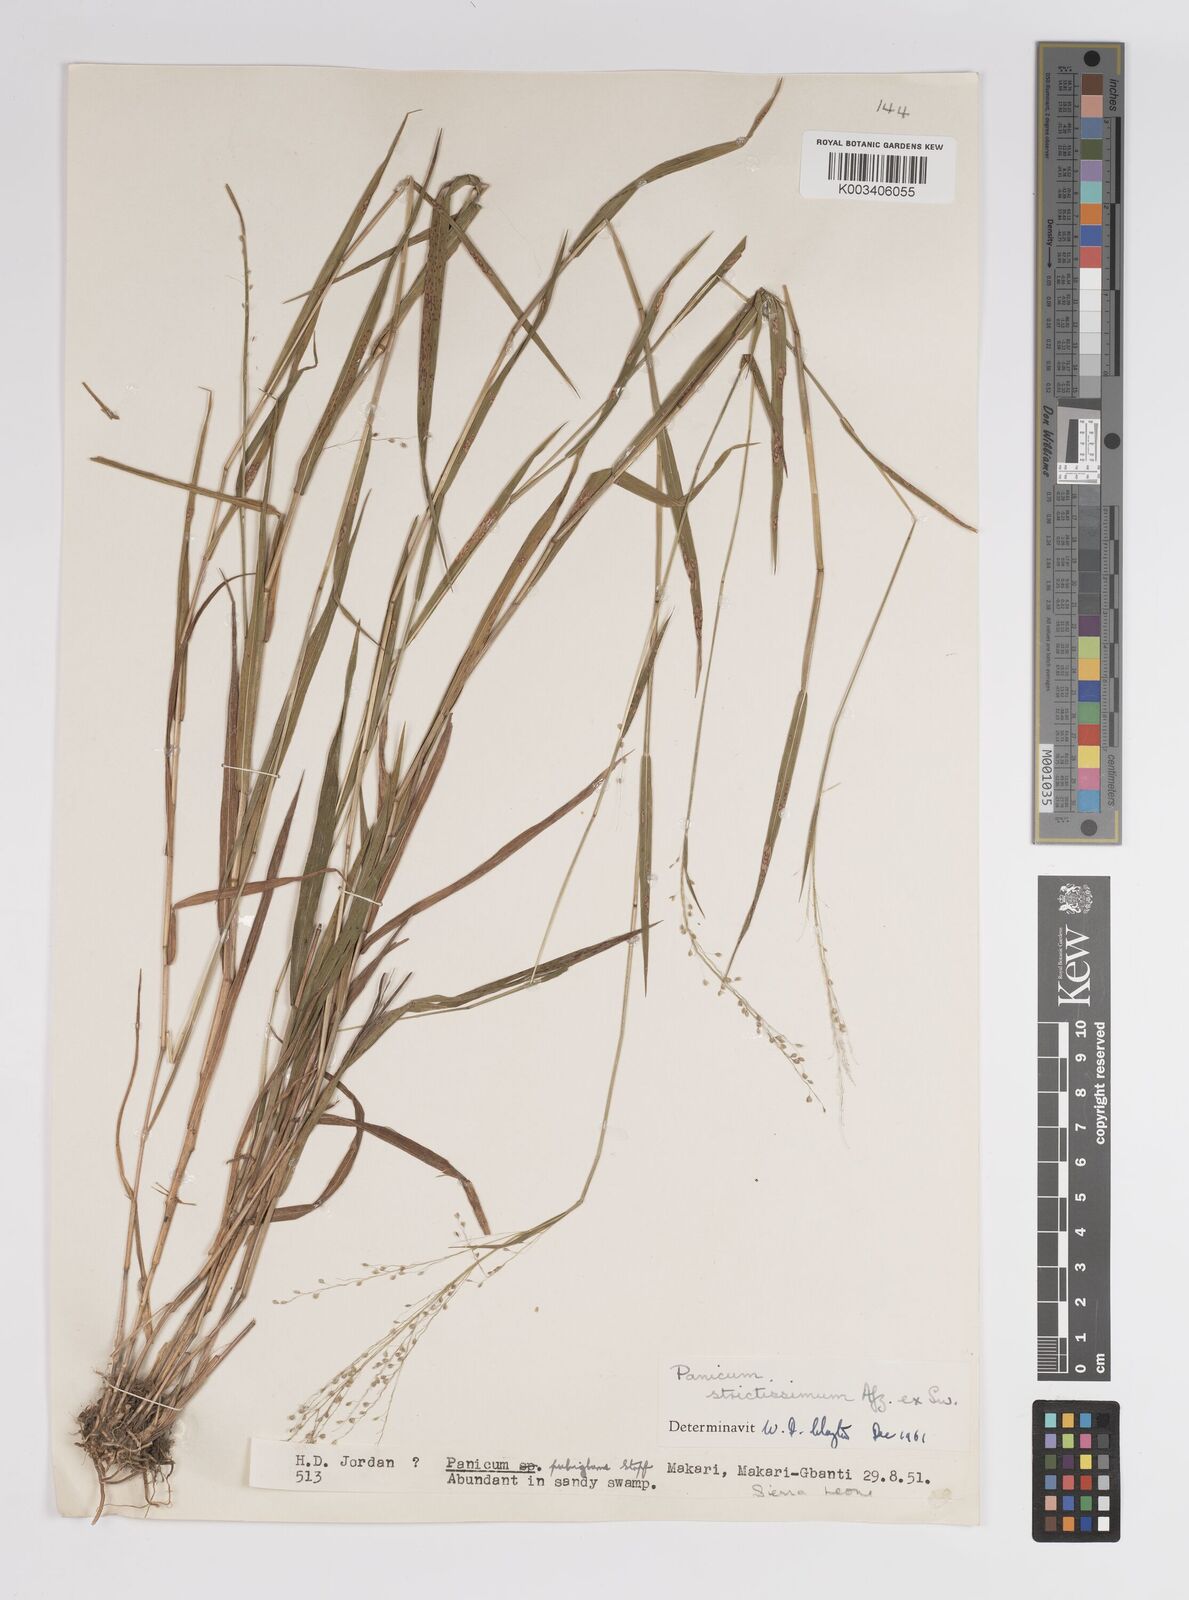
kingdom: Plantae
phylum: Tracheophyta
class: Liliopsida
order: Poales
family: Poaceae
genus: Trichanthecium
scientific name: Trichanthecium strictissimum
